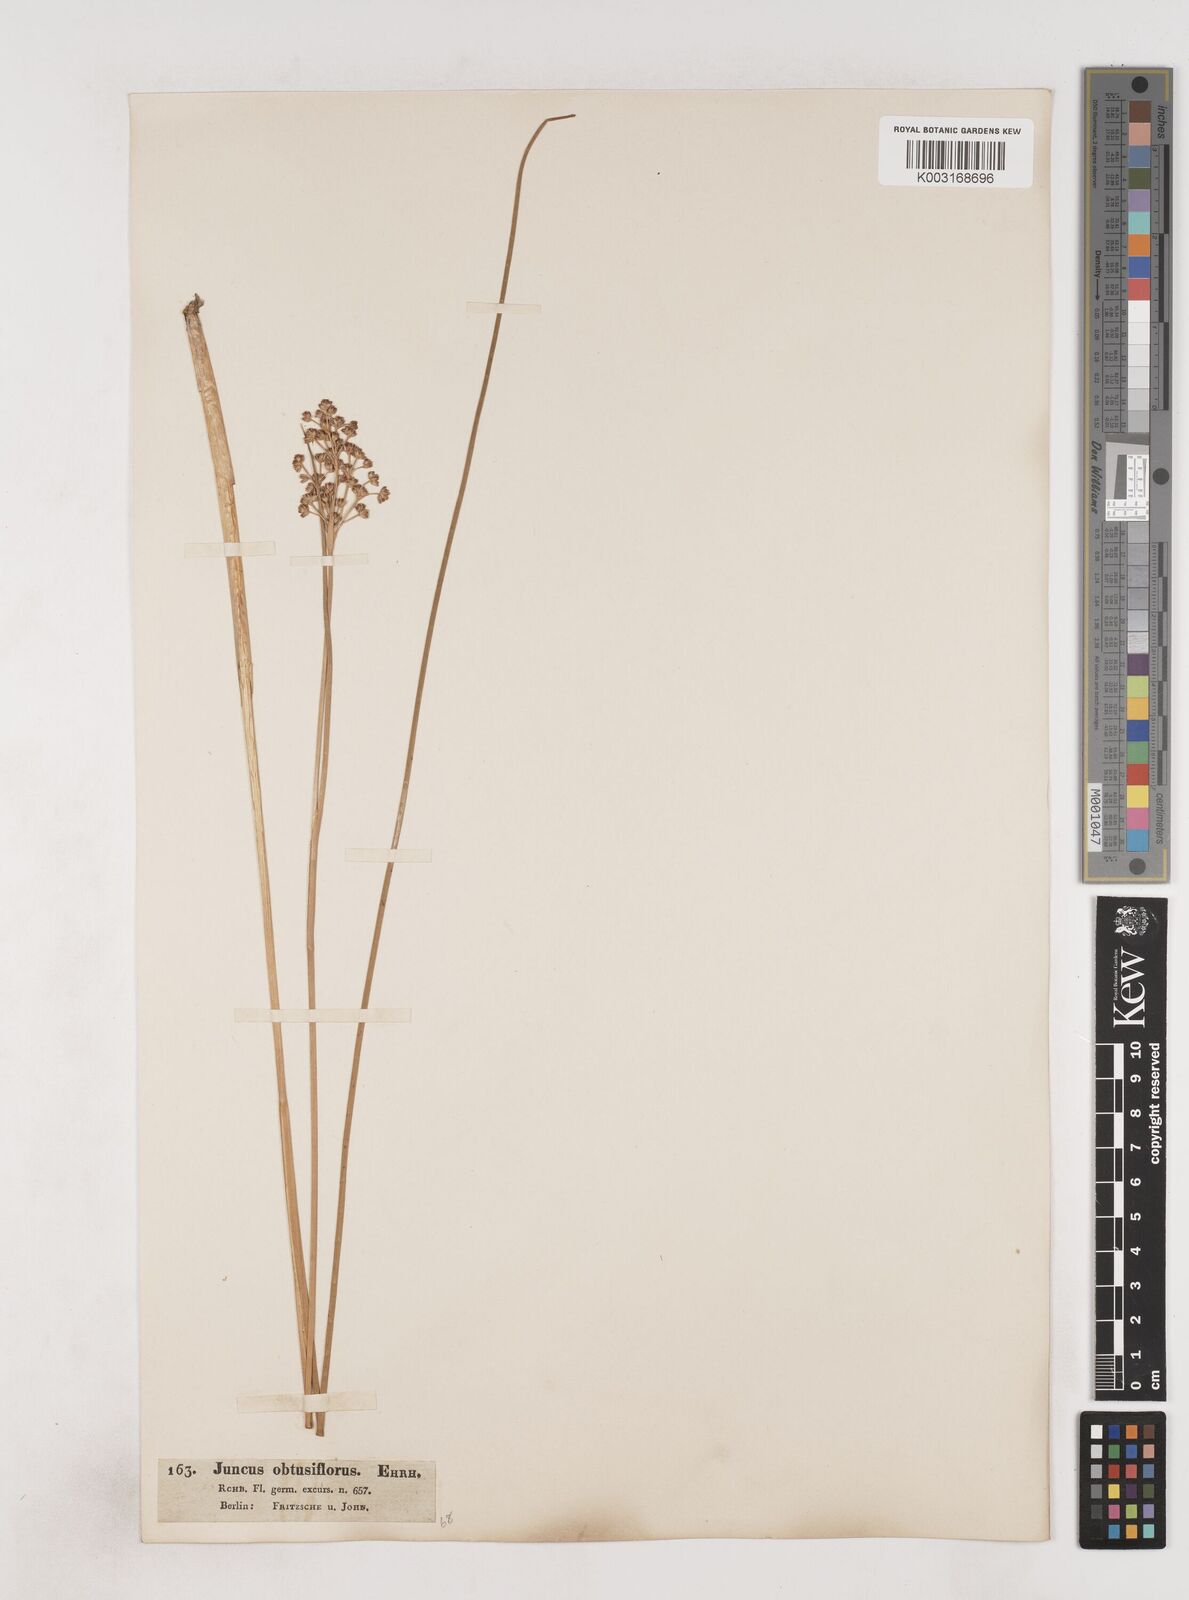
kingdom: Plantae
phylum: Tracheophyta
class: Liliopsida
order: Poales
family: Juncaceae
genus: Juncus
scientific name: Juncus subnodulosus
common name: Blunt-flowered rush
